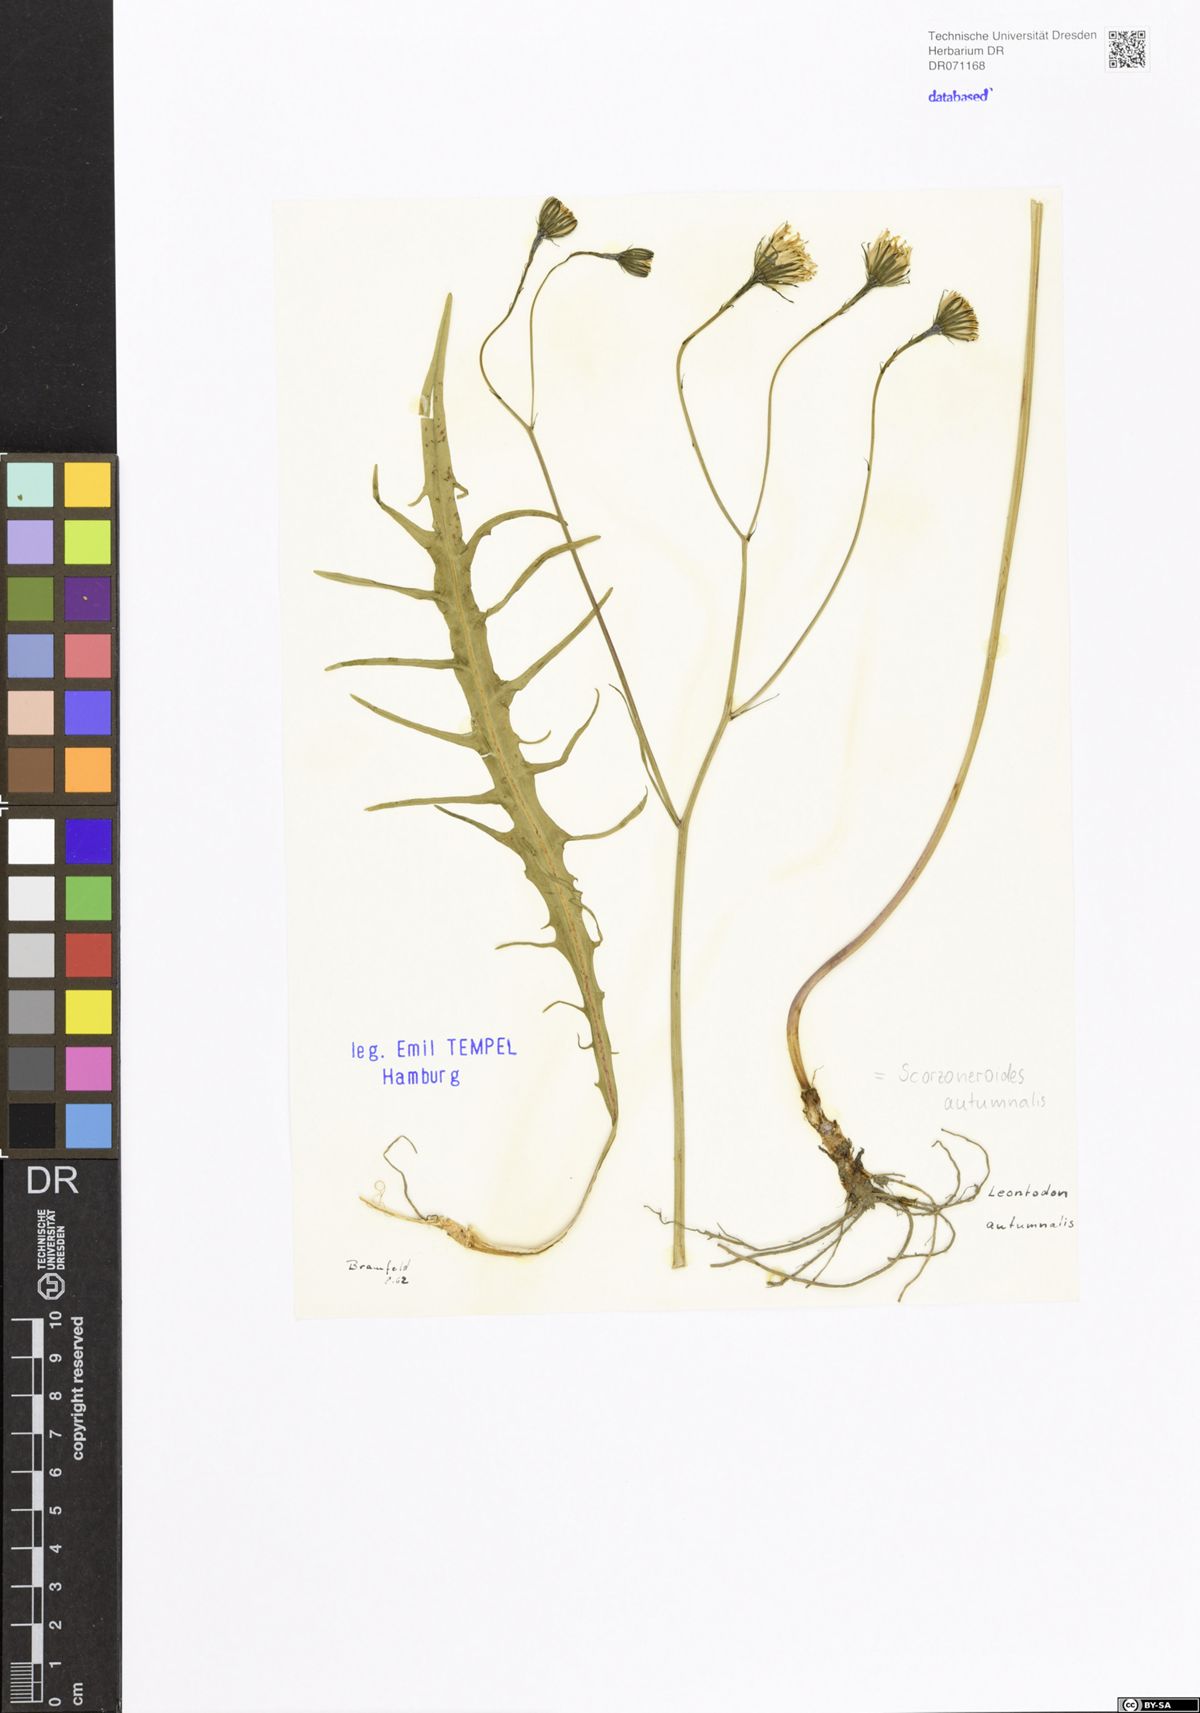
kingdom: Plantae
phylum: Tracheophyta
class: Magnoliopsida
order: Asterales
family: Asteraceae
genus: Scorzoneroides
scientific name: Scorzoneroides autumnalis
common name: Autumn hawkbit
